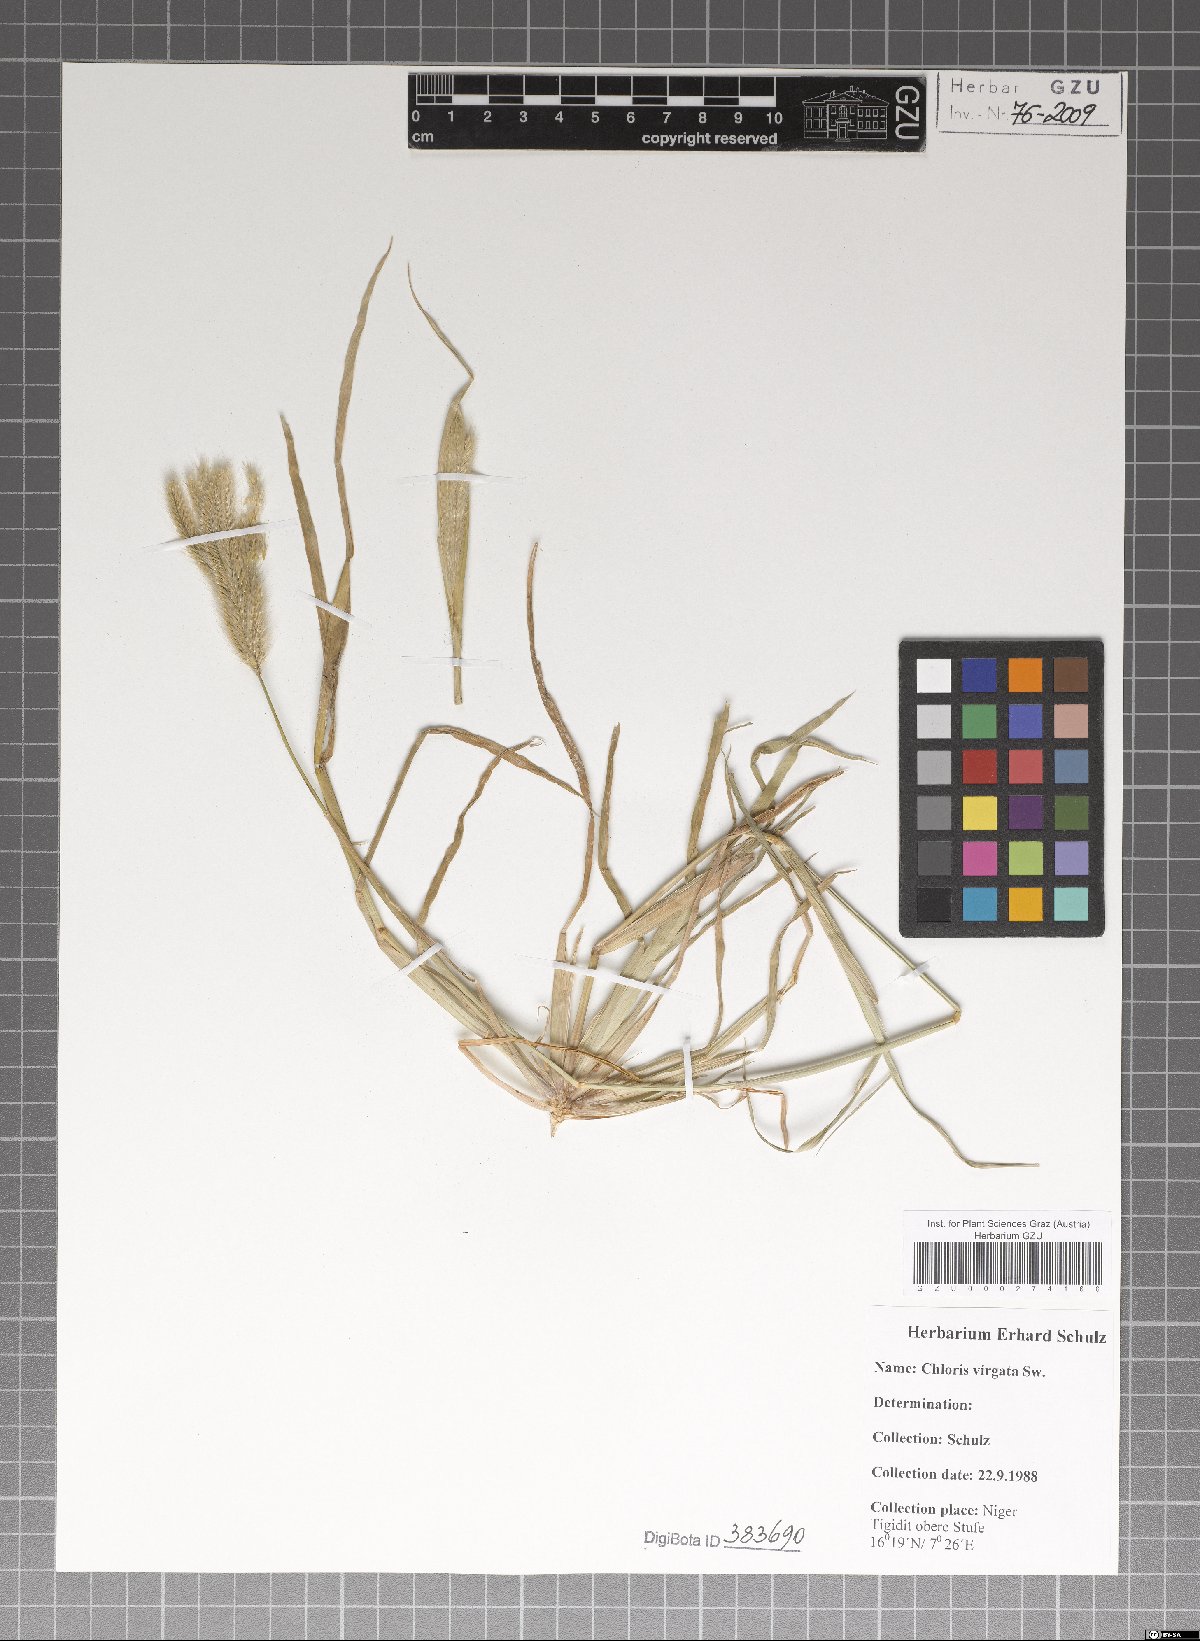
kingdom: Plantae
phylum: Tracheophyta
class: Liliopsida
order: Poales
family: Poaceae
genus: Chloris
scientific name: Chloris virgata
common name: Feathery rhodes-grass
